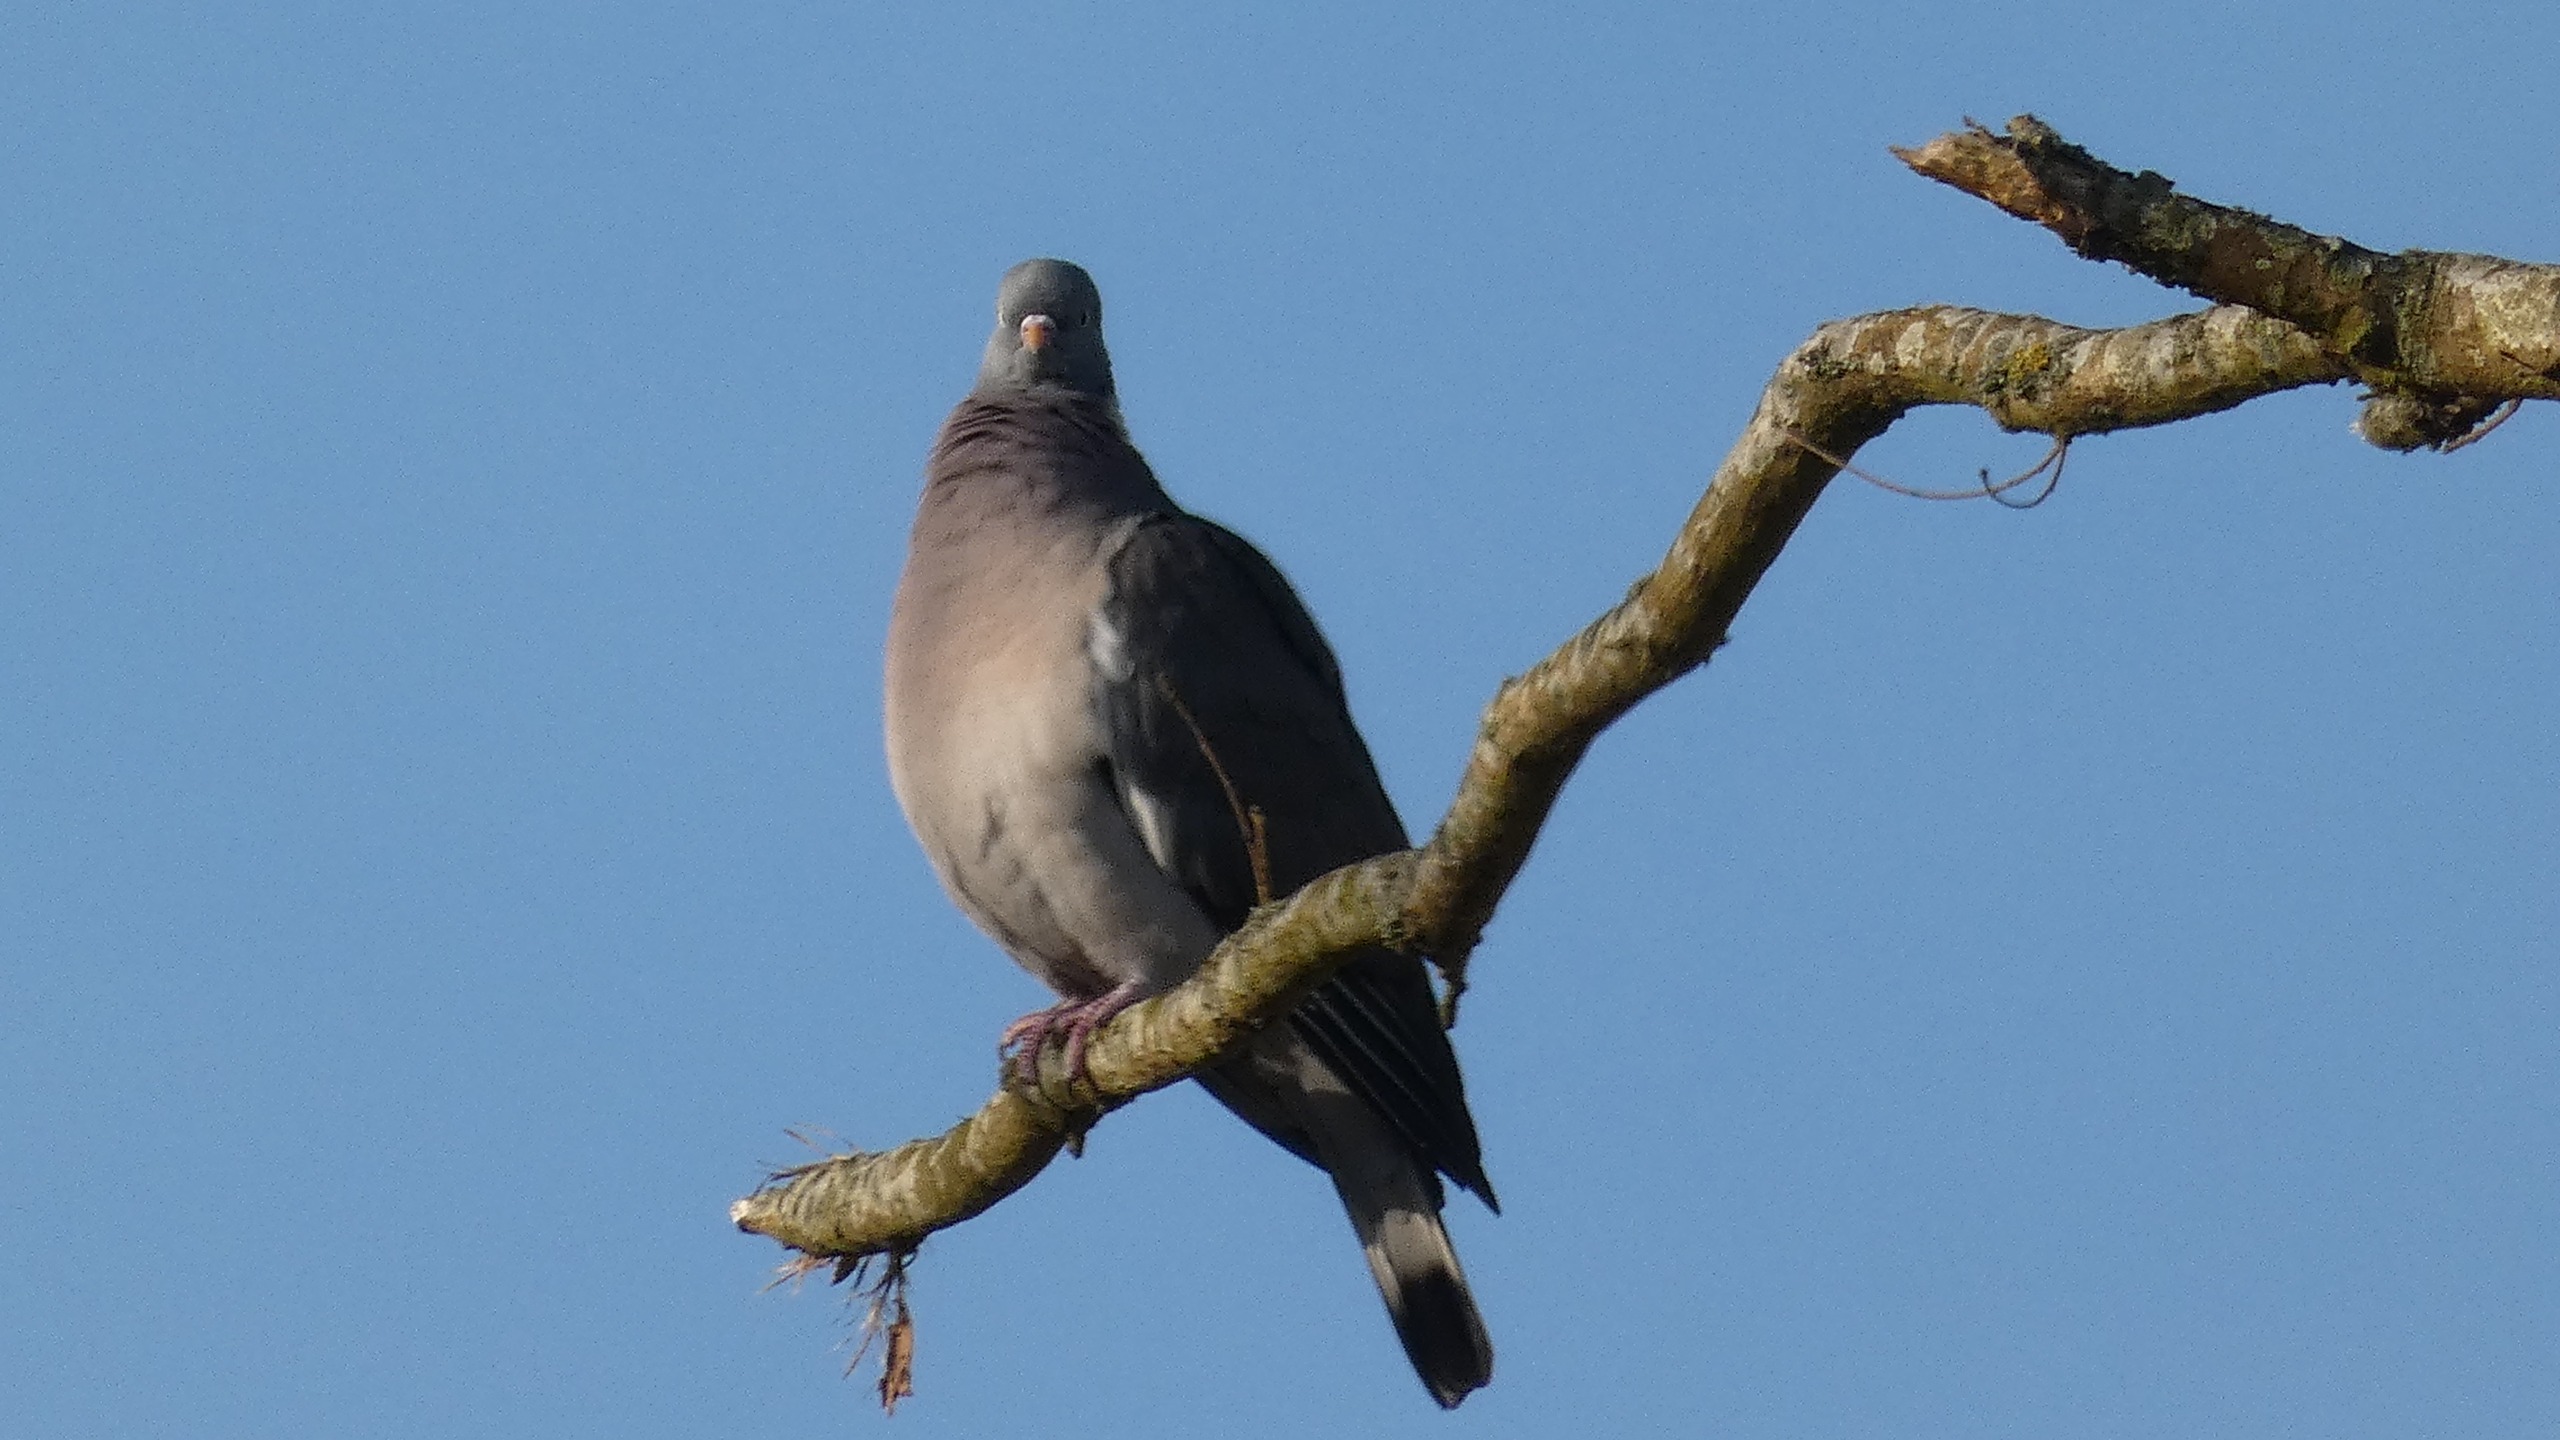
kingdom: Animalia
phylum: Chordata
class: Aves
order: Columbiformes
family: Columbidae
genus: Columba
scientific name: Columba palumbus
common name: Ringdue
